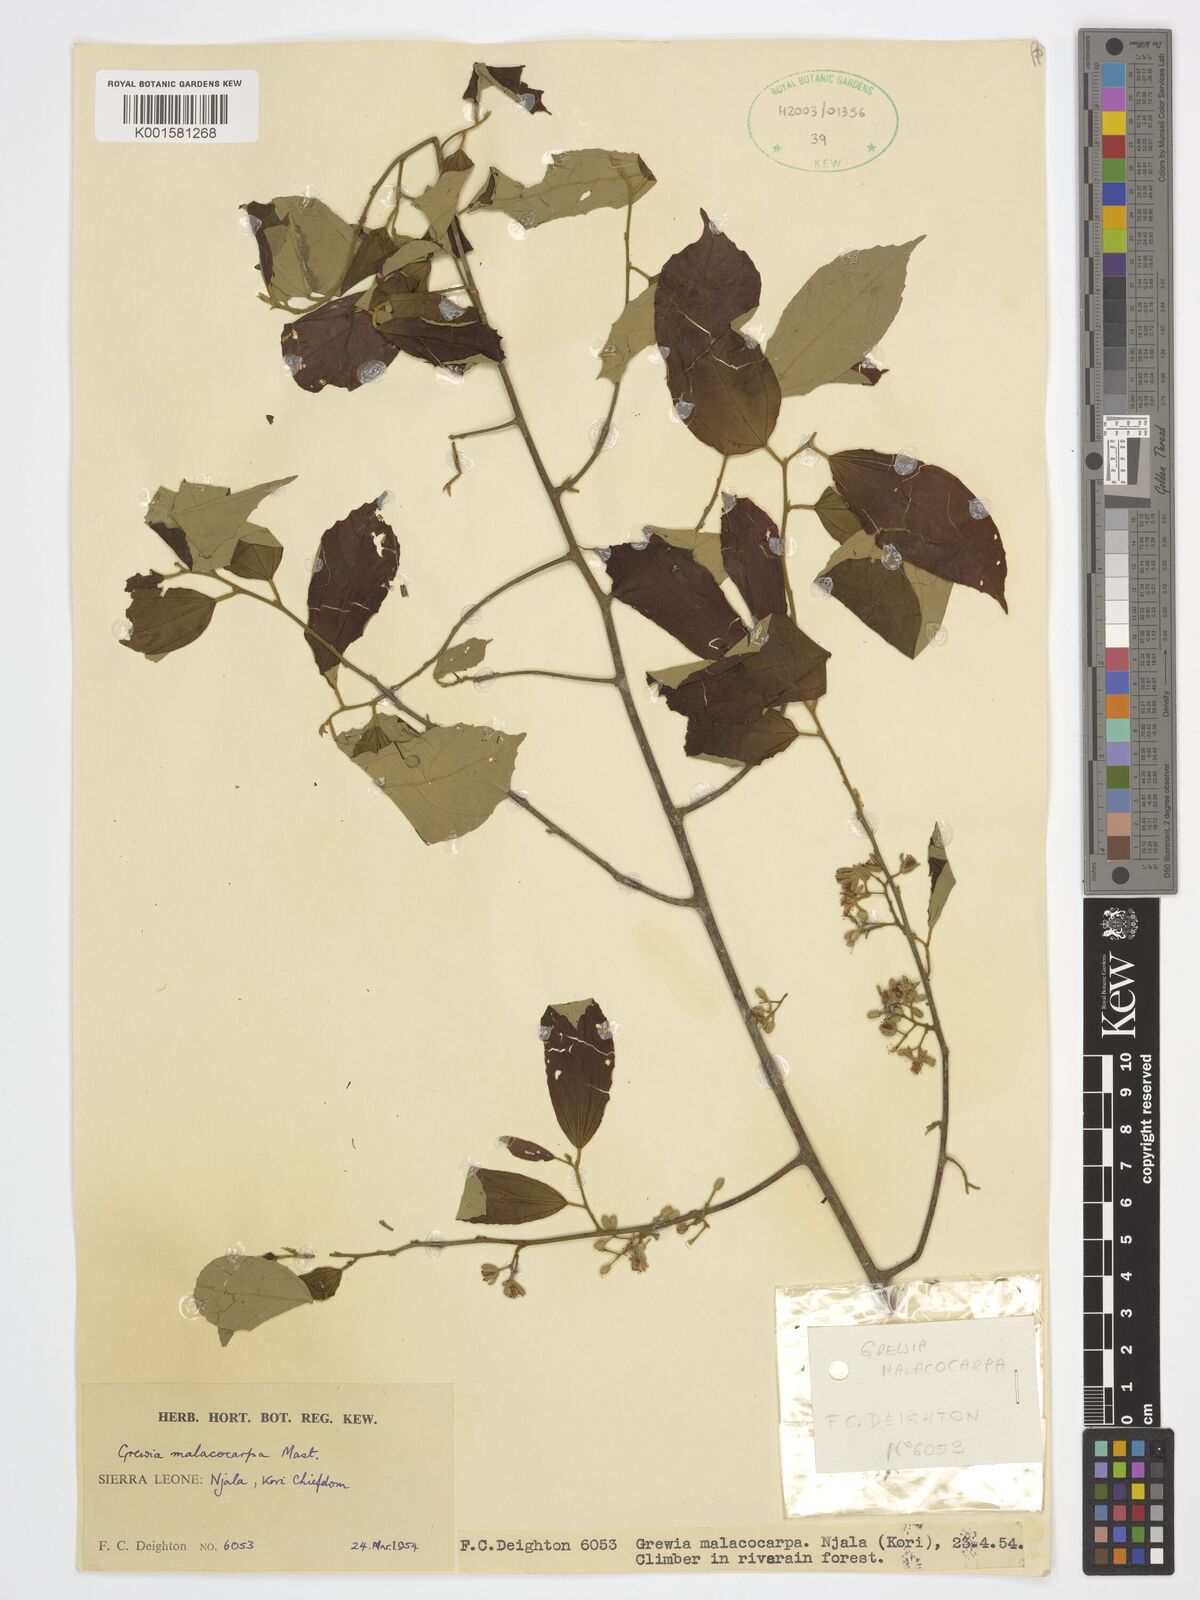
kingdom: Plantae
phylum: Tracheophyta
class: Magnoliopsida
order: Malvales
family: Malvaceae
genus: Microcos
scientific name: Microcos malacocarpa
